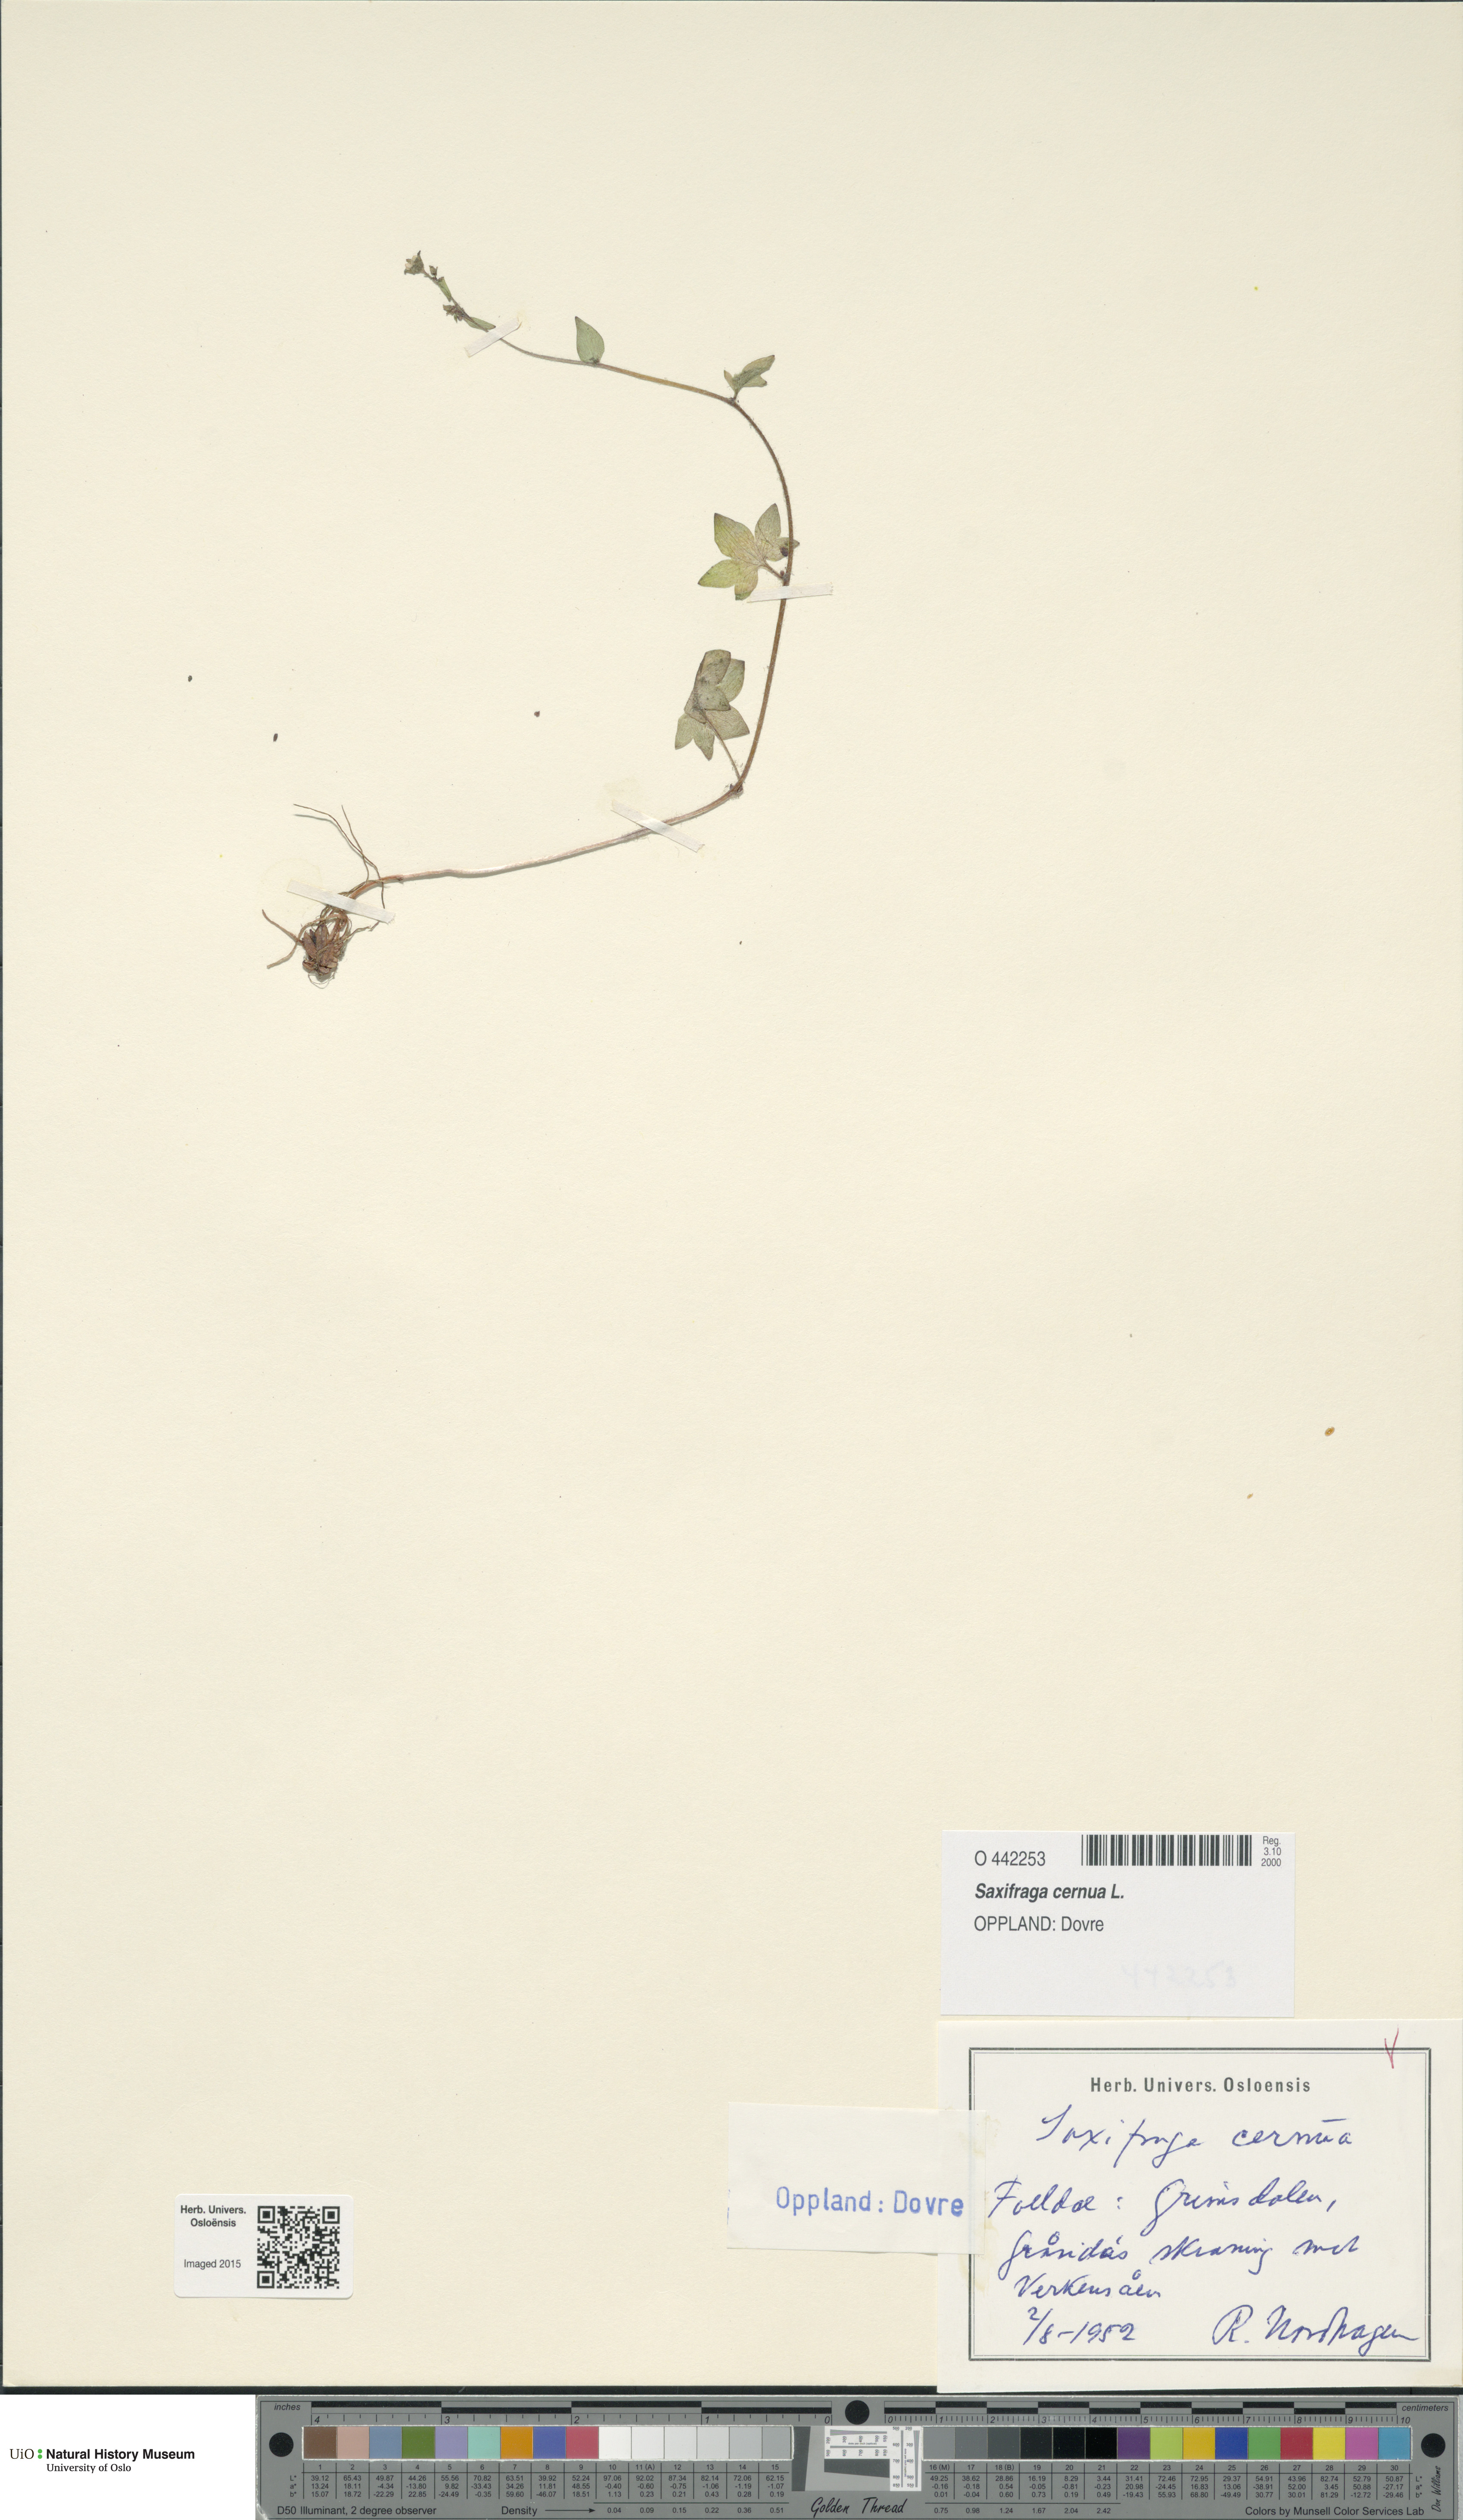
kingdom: Plantae
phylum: Tracheophyta
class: Magnoliopsida
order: Saxifragales
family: Saxifragaceae
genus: Saxifraga
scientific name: Saxifraga cernua
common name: Drooping saxifrage
